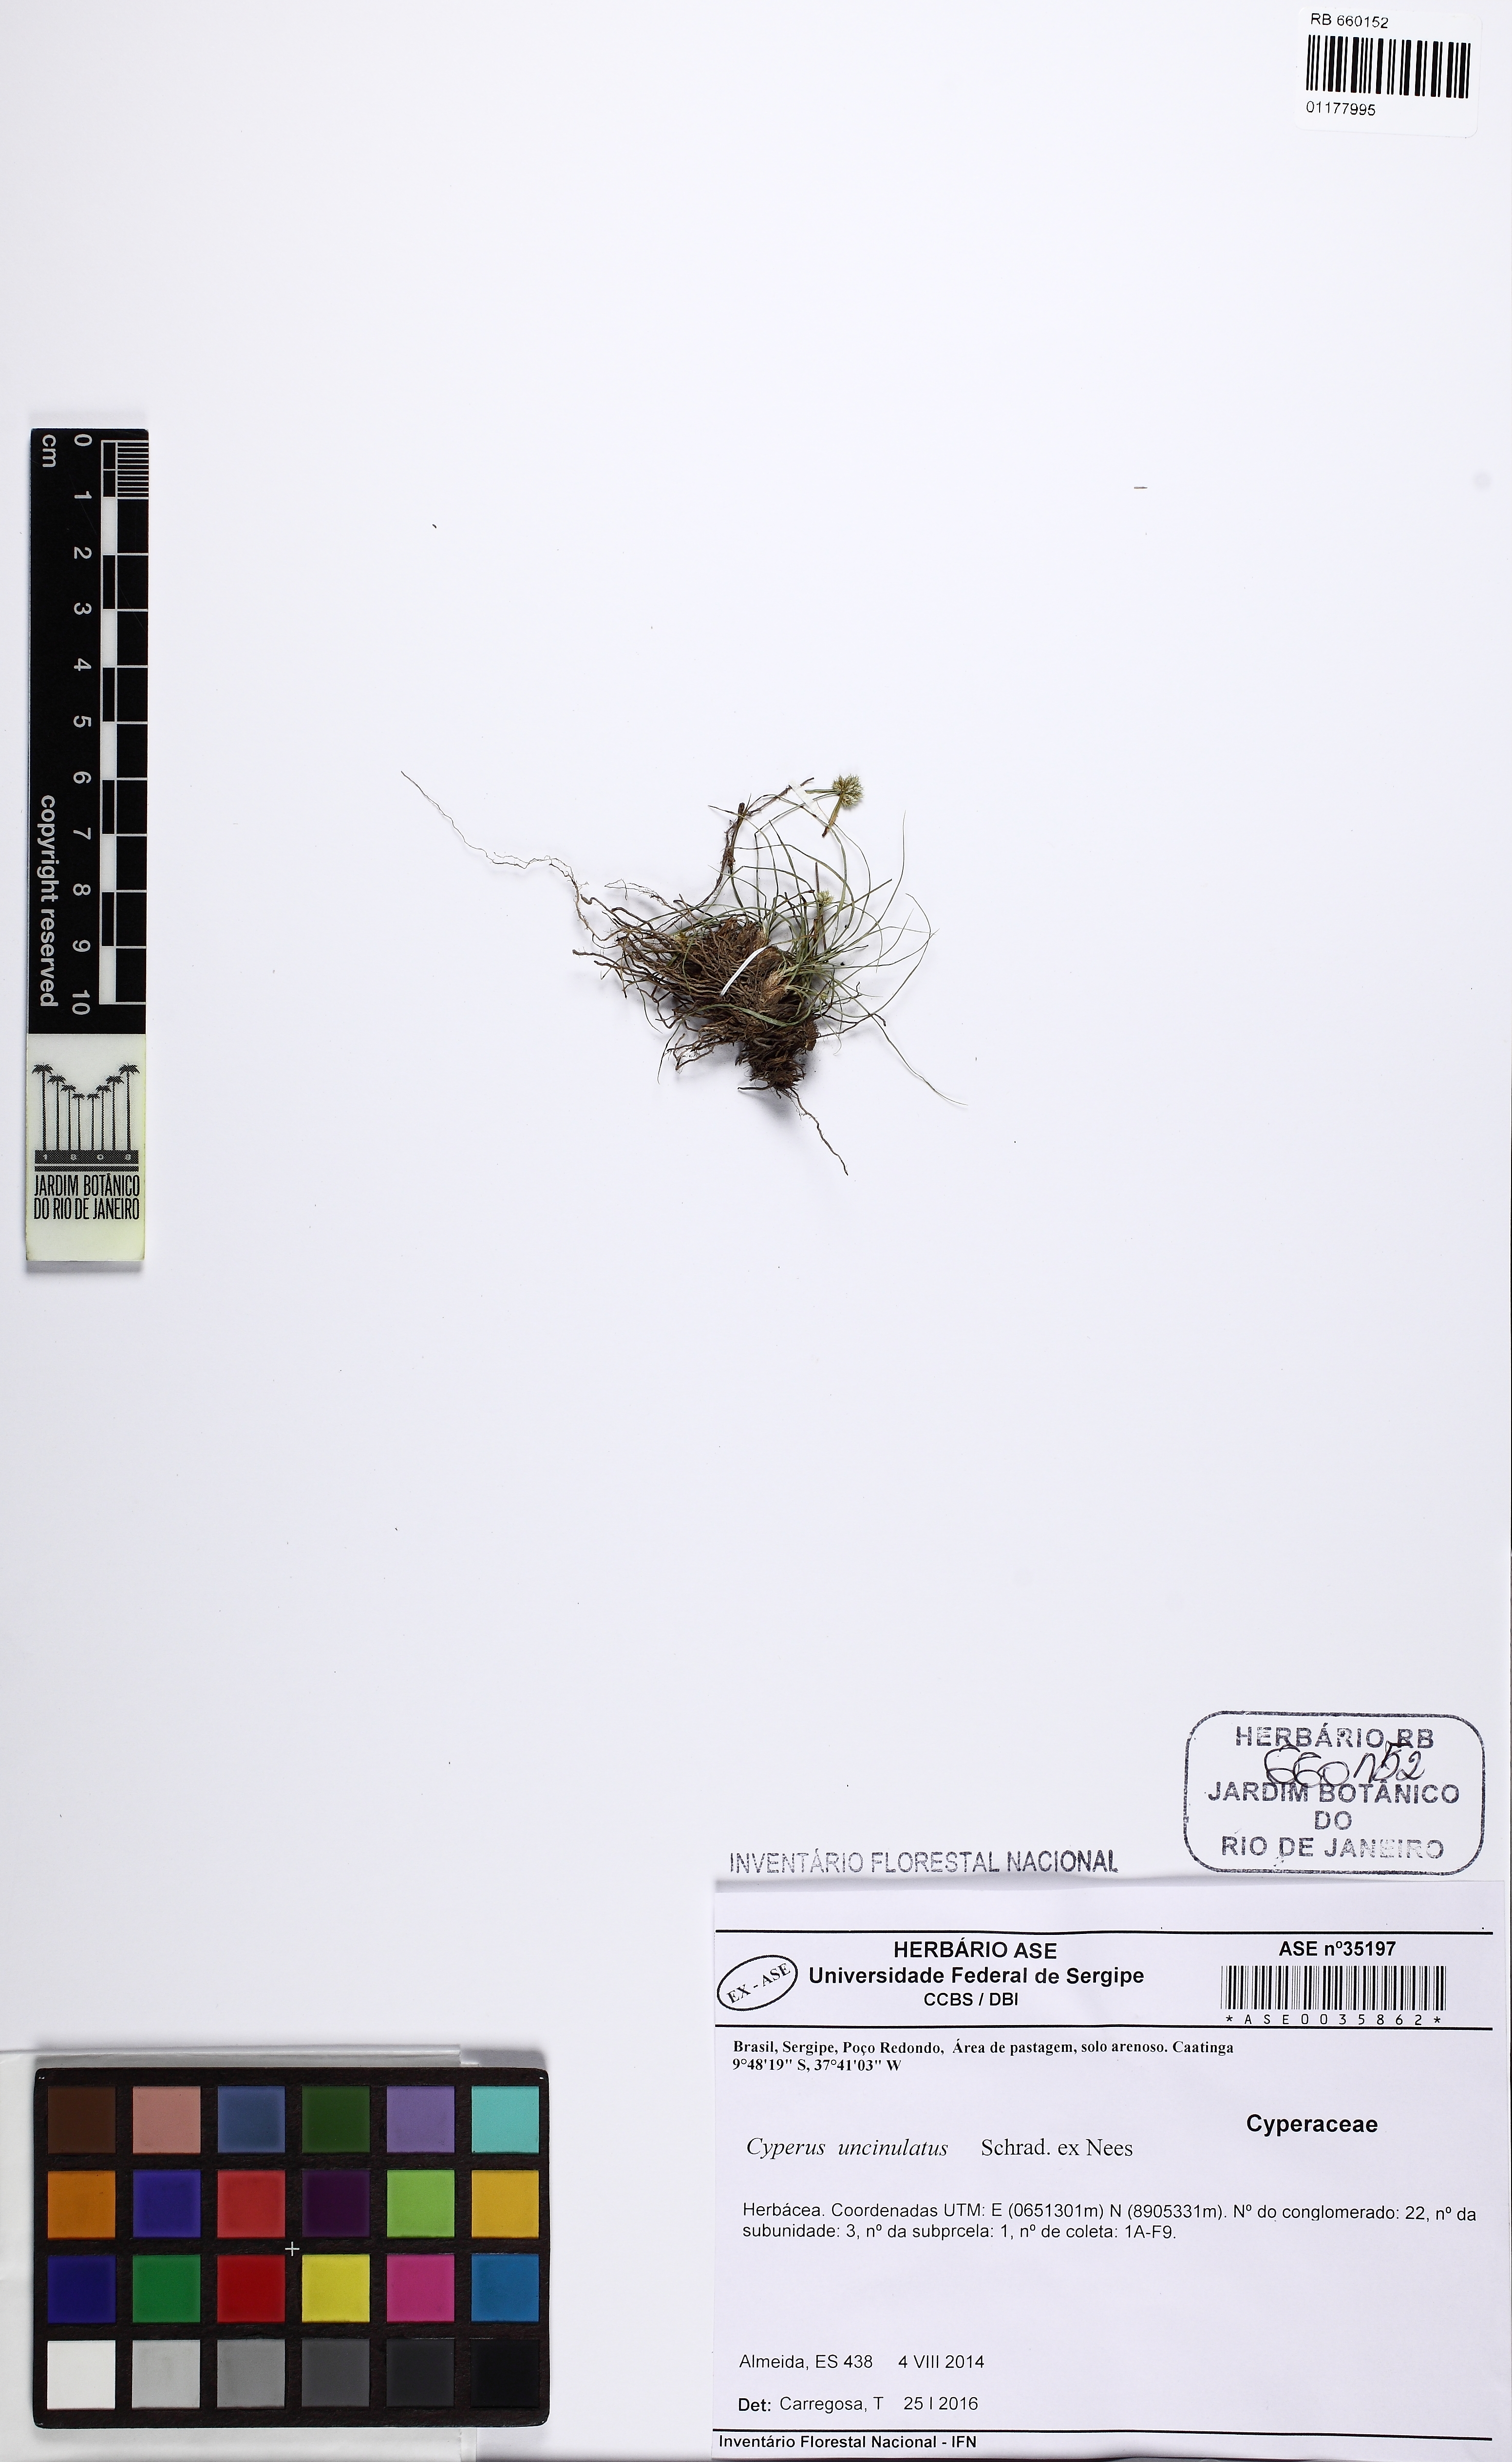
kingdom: Plantae
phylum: Tracheophyta
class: Liliopsida
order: Poales
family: Cyperaceae
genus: Cyperus
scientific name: Cyperus uncinulatus
